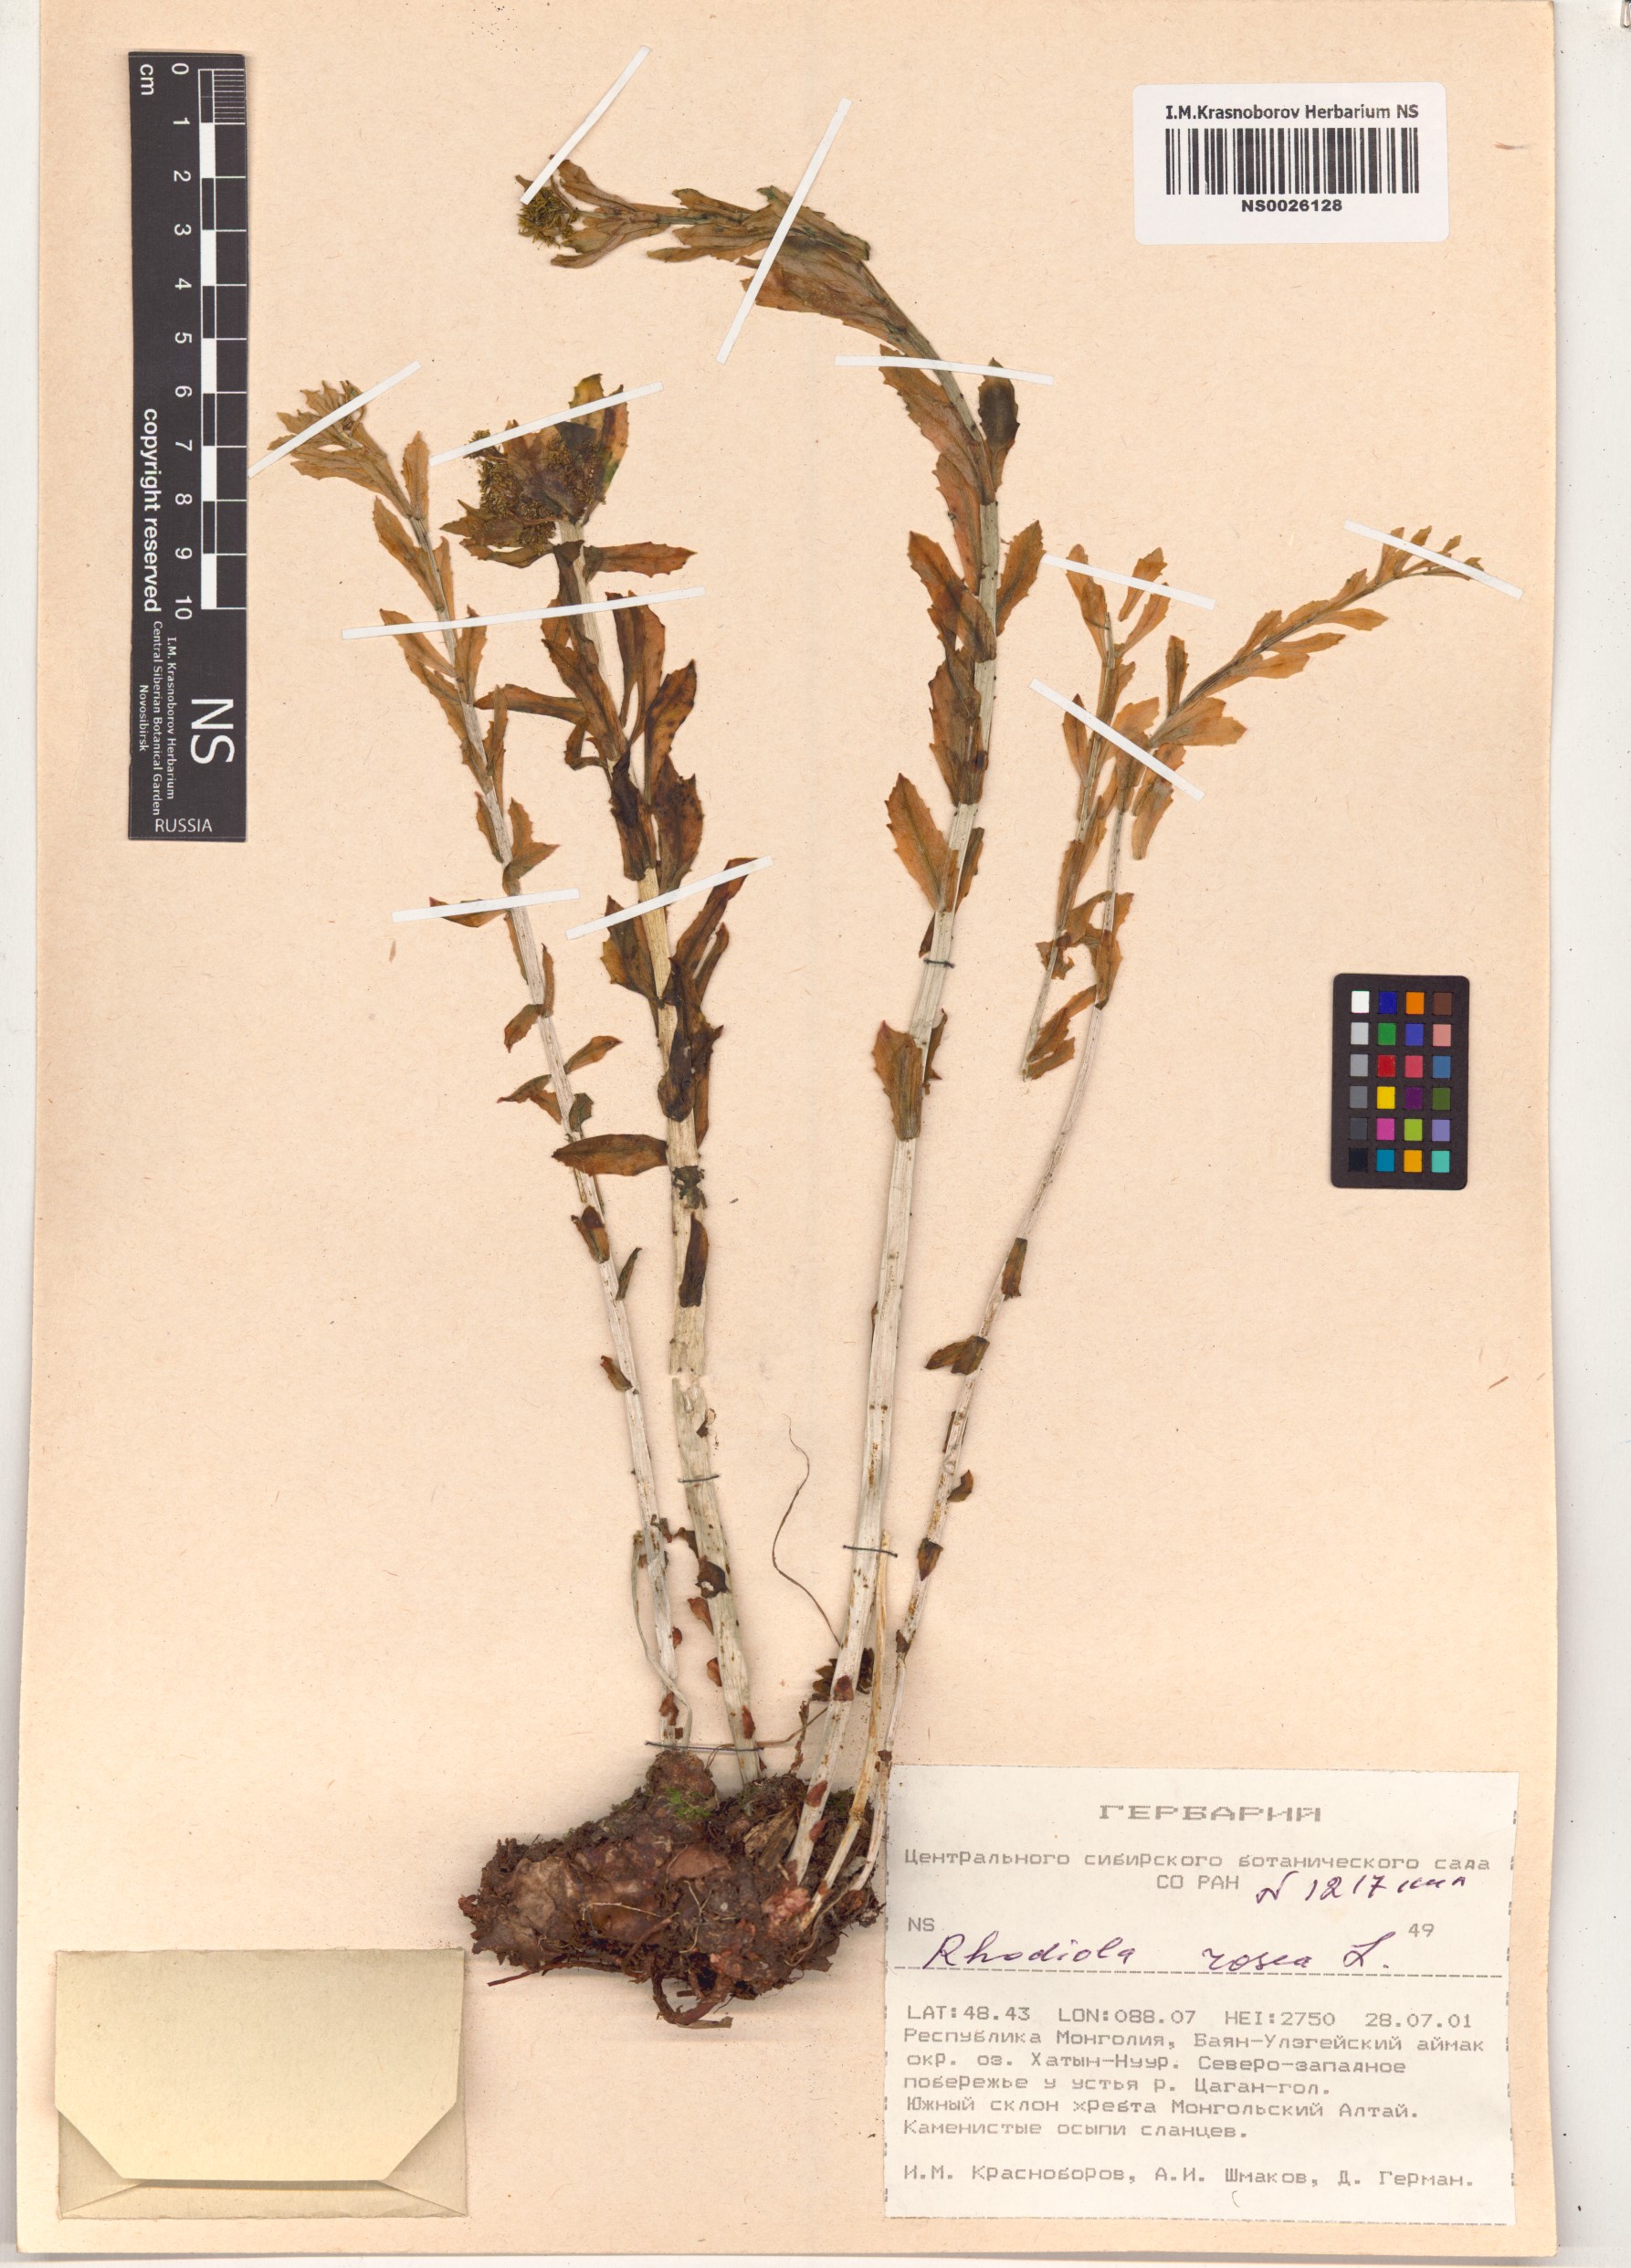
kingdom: Plantae
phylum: Tracheophyta
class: Magnoliopsida
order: Saxifragales
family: Crassulaceae
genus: Rhodiola
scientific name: Rhodiola rosea
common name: Roseroot
